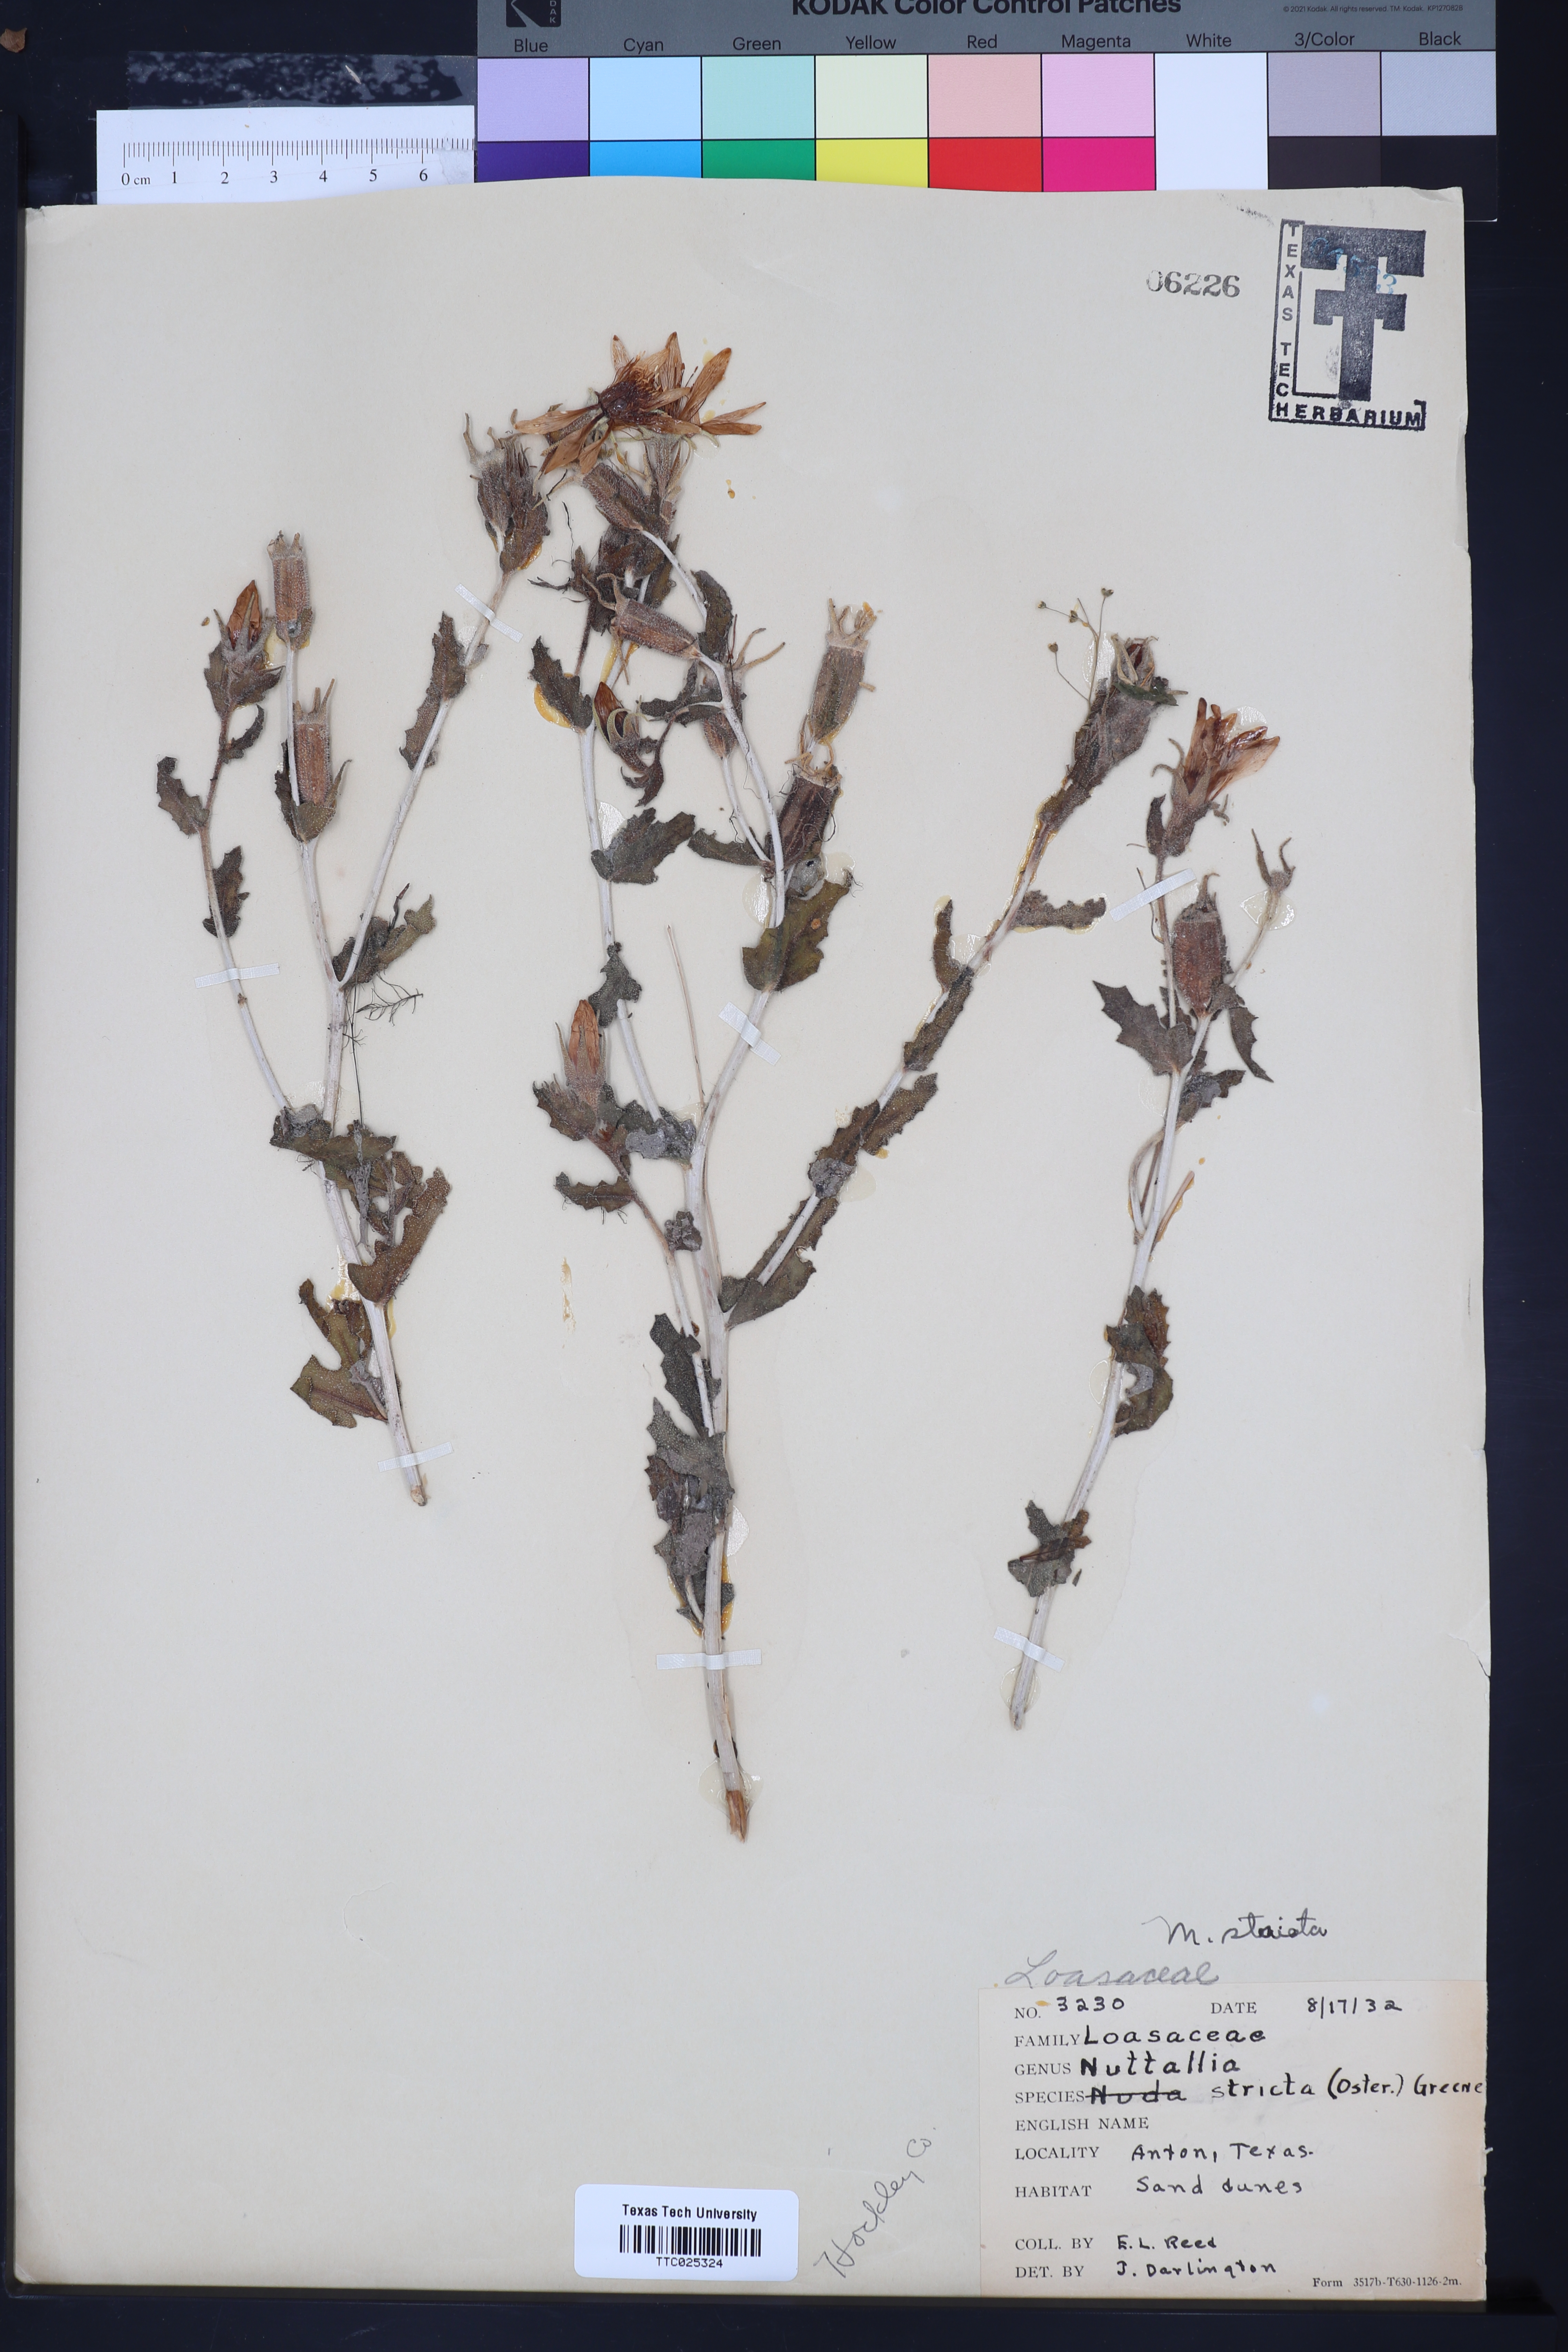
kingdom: Plantae
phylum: Tracheophyta
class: Magnoliopsida
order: Cornales
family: Loasaceae
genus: Mentzelia
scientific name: Mentzelia nuda
